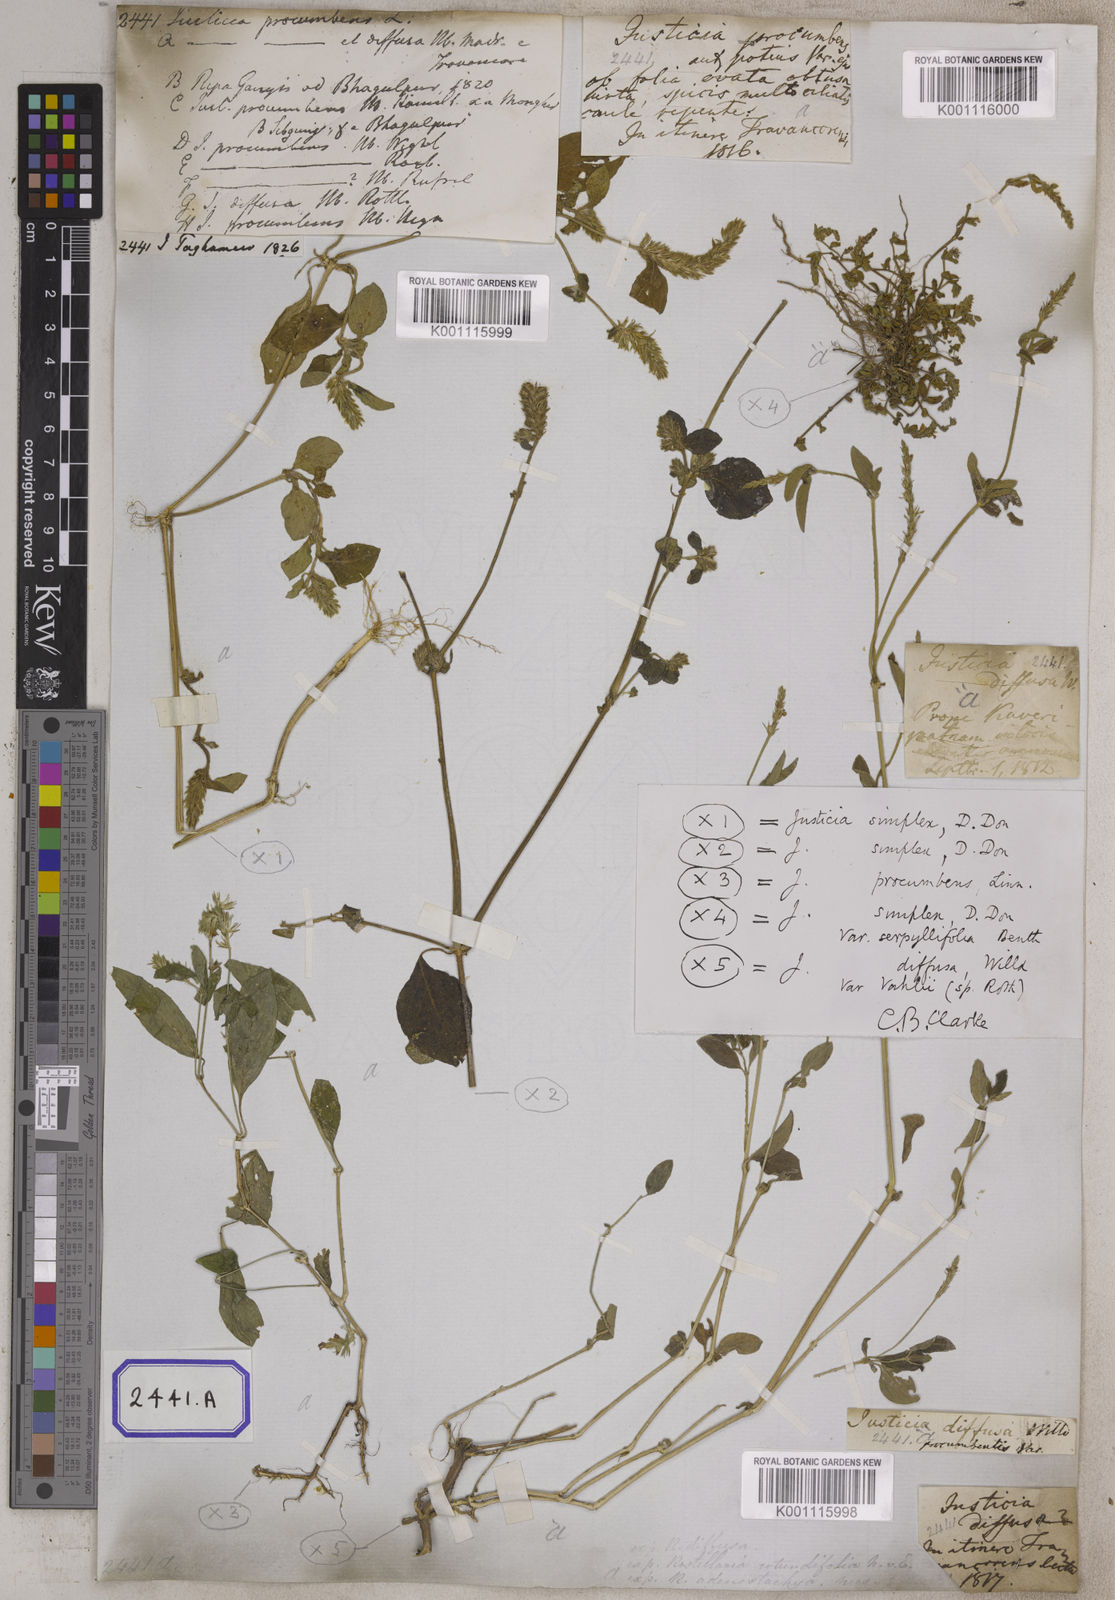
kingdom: Plantae
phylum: Tracheophyta
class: Magnoliopsida
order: Lamiales
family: Acanthaceae
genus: Rostellularia
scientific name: Rostellularia procumbens
